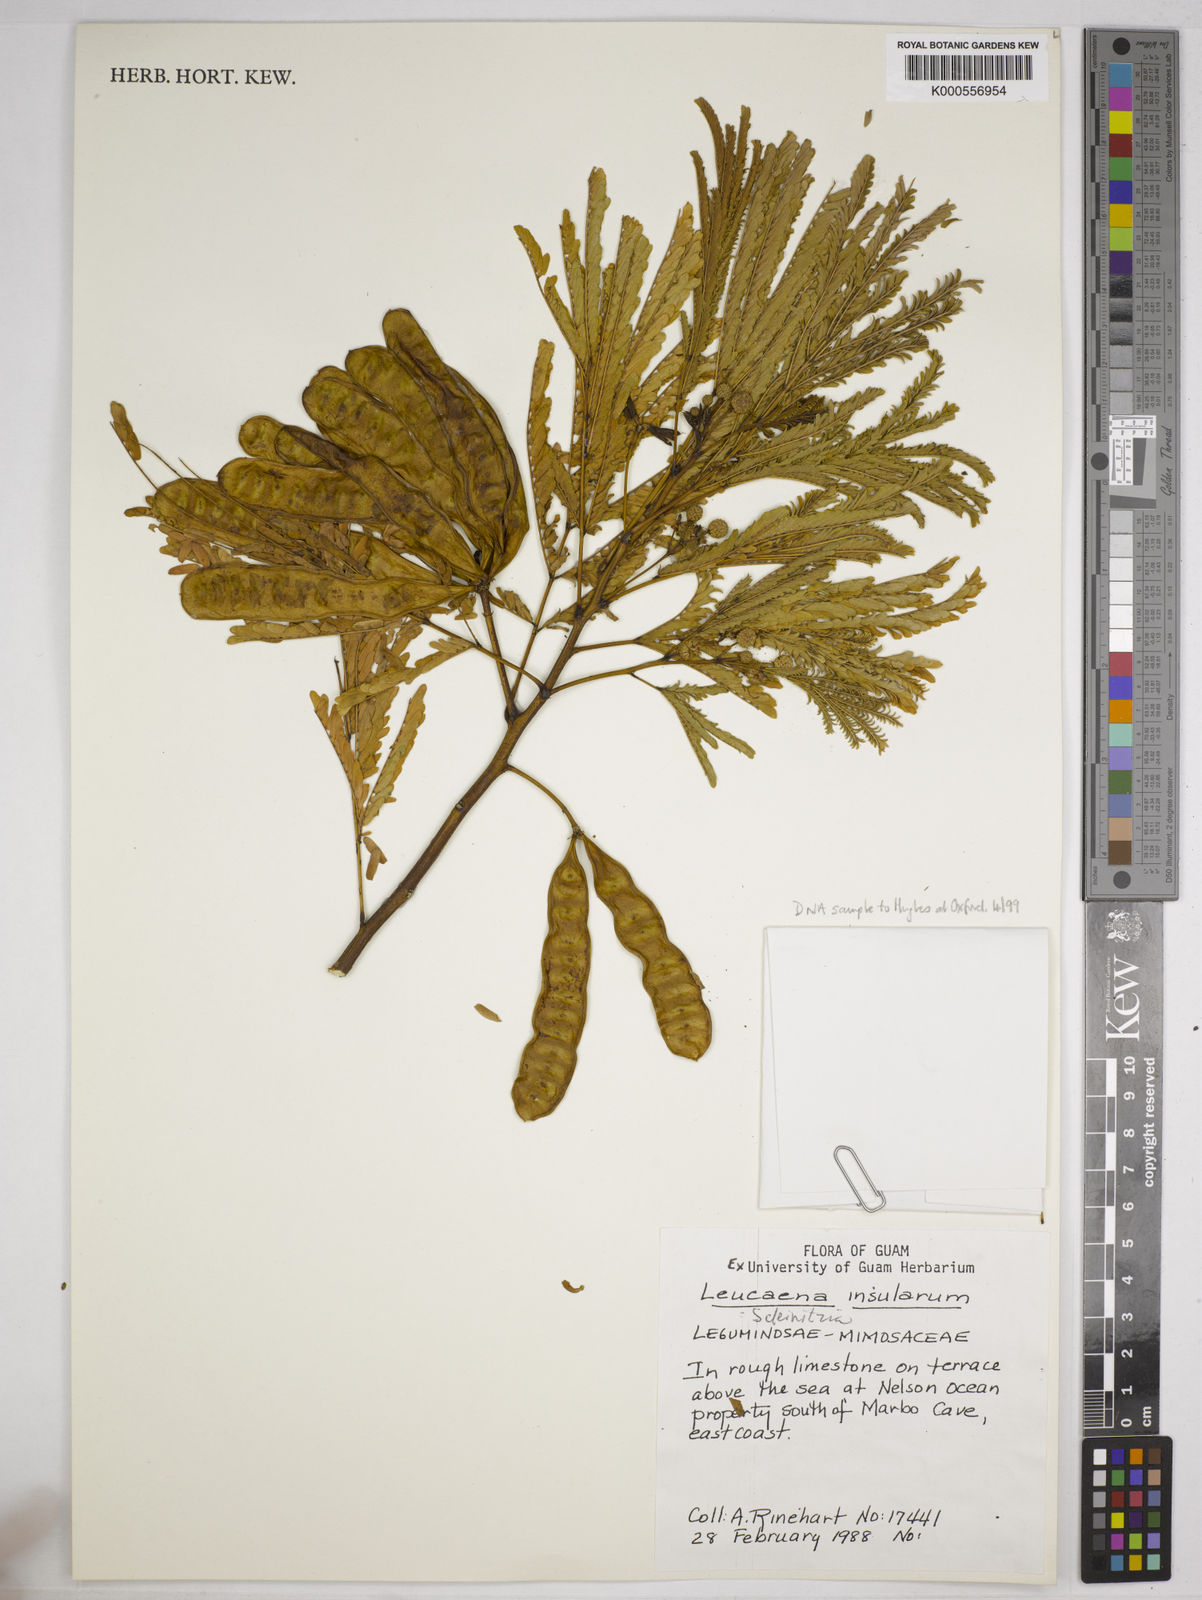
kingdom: Plantae
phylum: Tracheophyta
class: Magnoliopsida
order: Fabales
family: Fabaceae
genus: Schleinitzia
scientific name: Schleinitzia insularum
